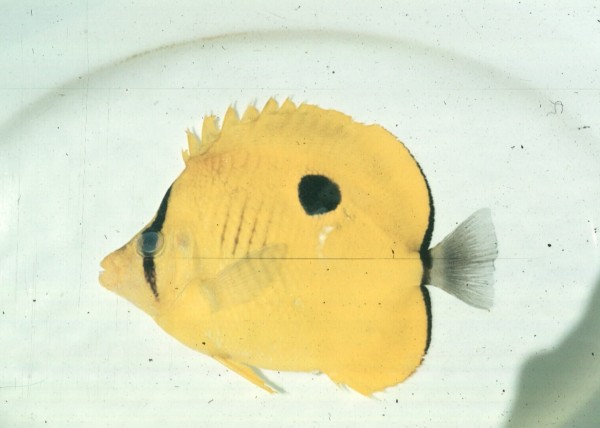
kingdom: Animalia
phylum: Chordata
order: Perciformes
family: Chaetodontidae
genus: Chaetodon
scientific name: Chaetodon interruptus
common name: Yellow teardrop butterflyfish
